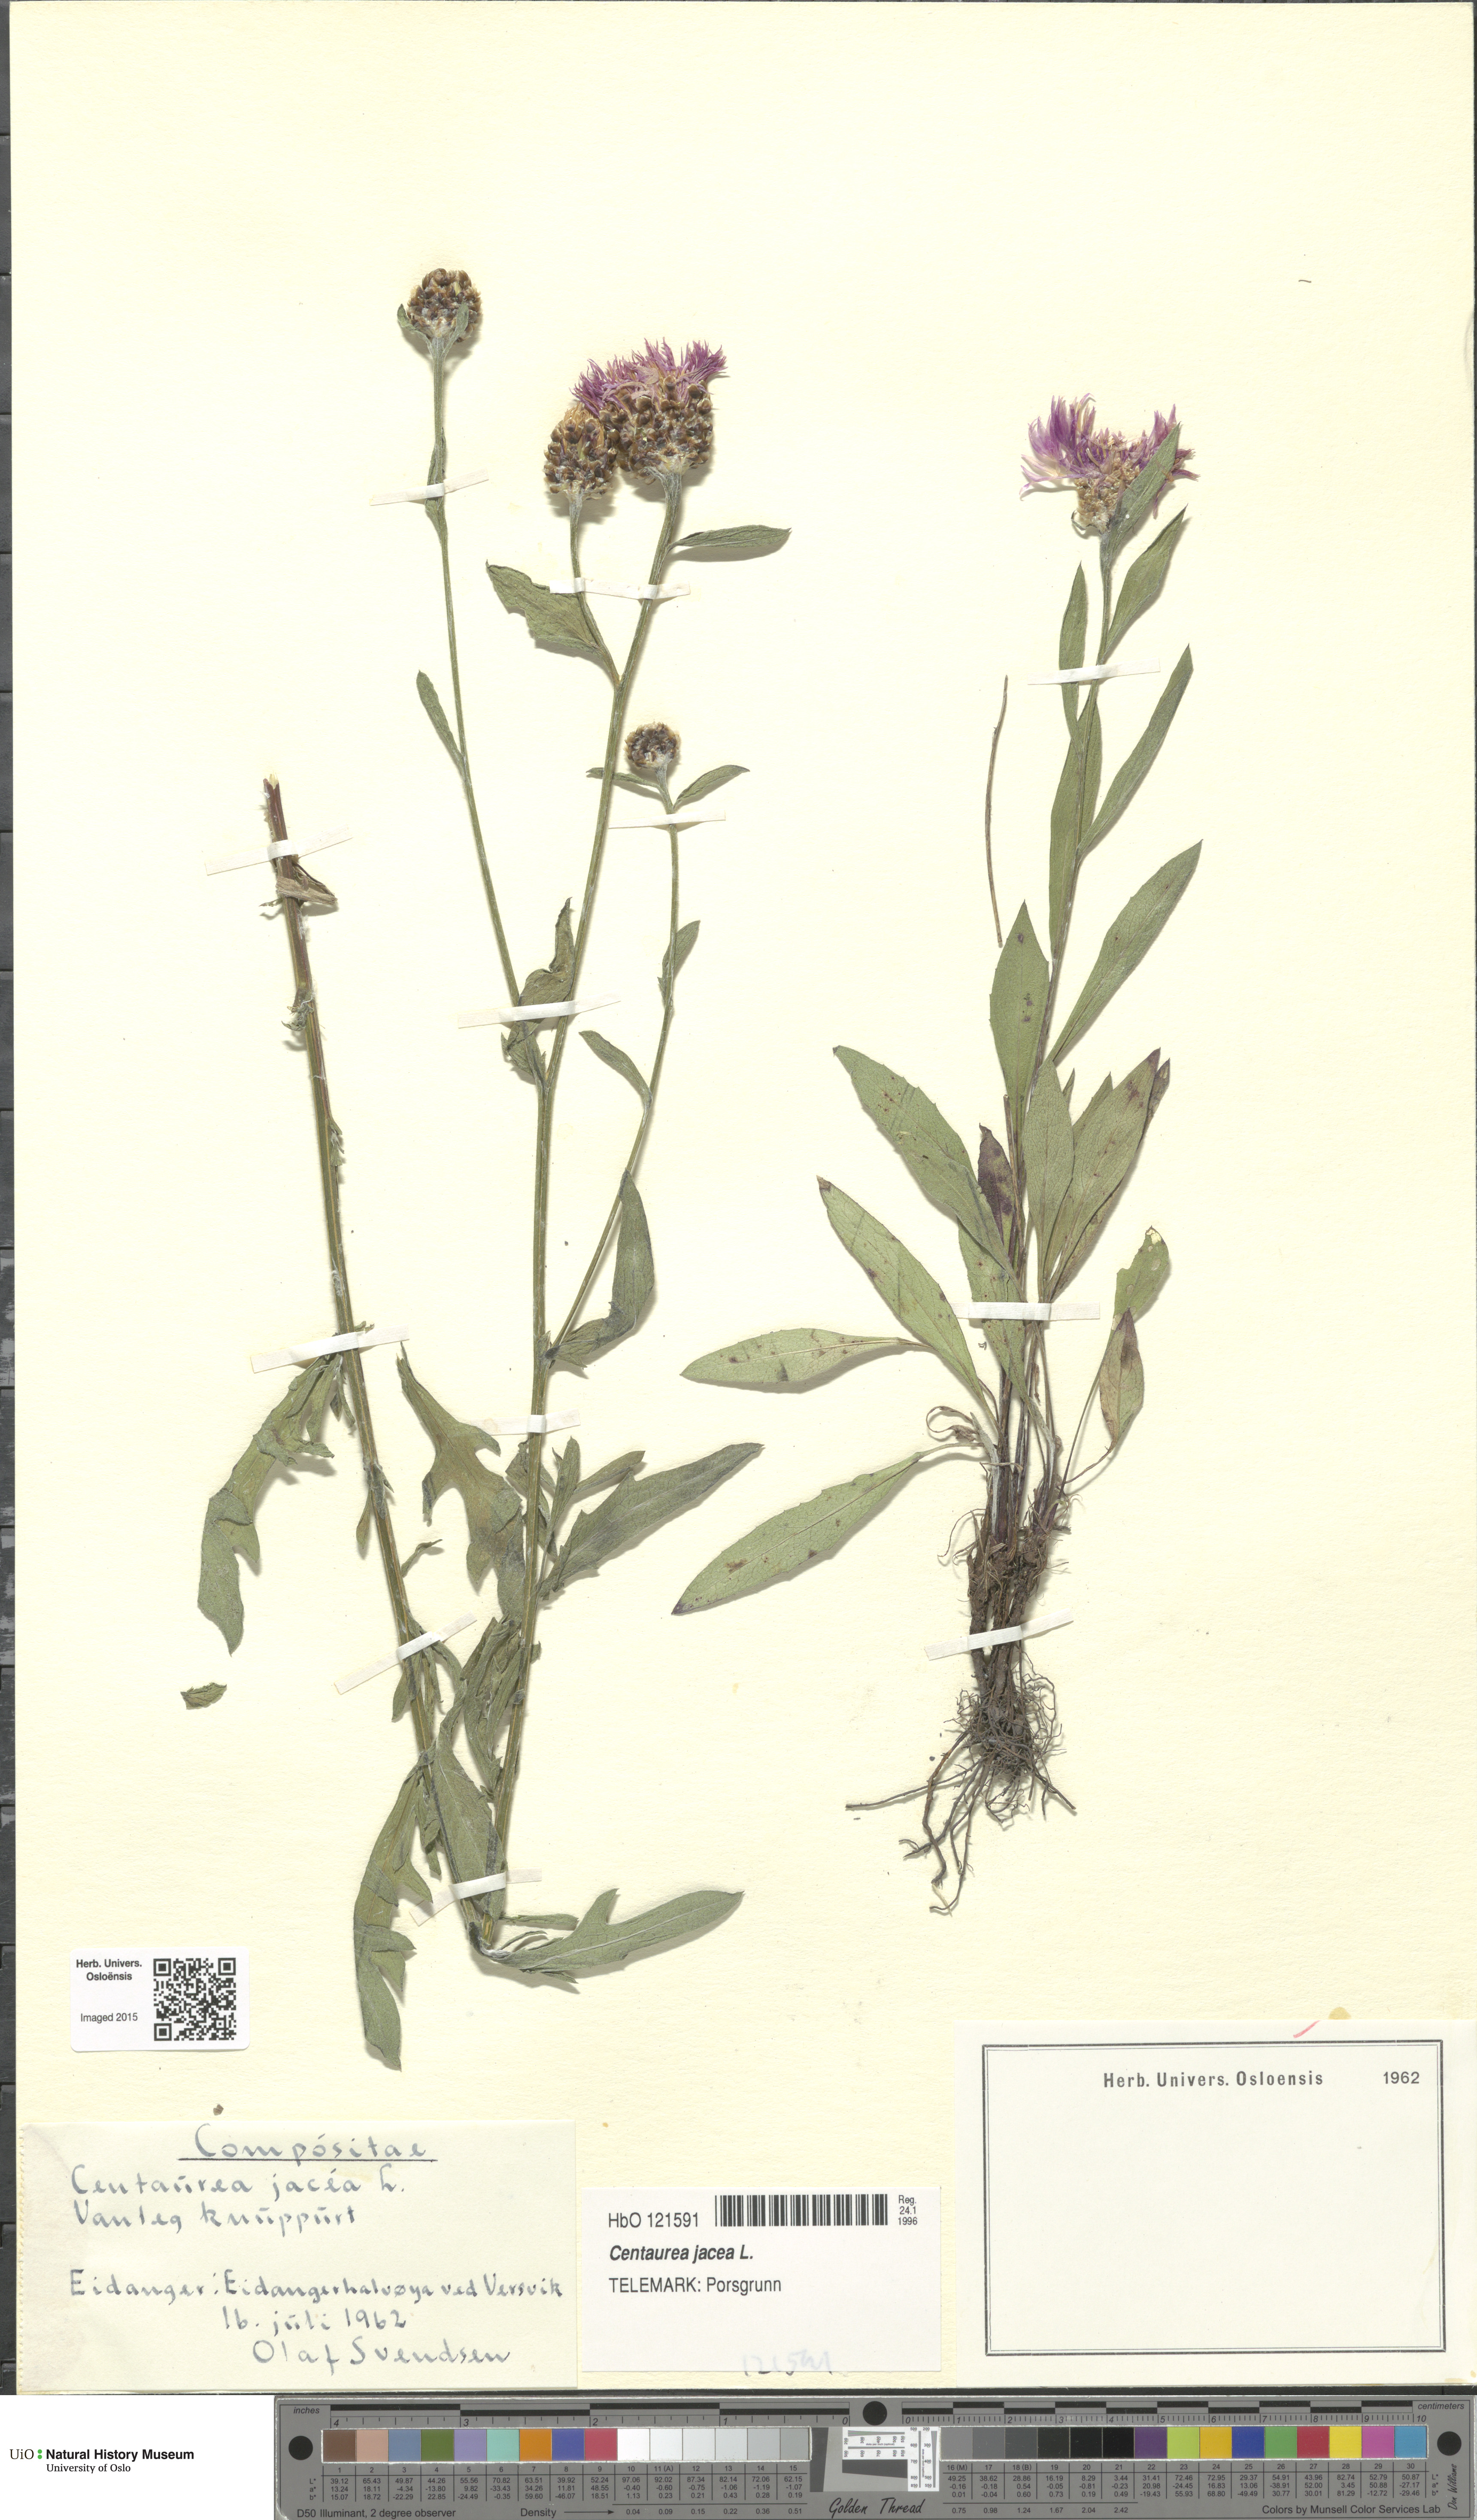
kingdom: Plantae
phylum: Tracheophyta
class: Magnoliopsida
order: Asterales
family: Asteraceae
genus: Centaurea
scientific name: Centaurea jacea
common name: Brown knapweed
